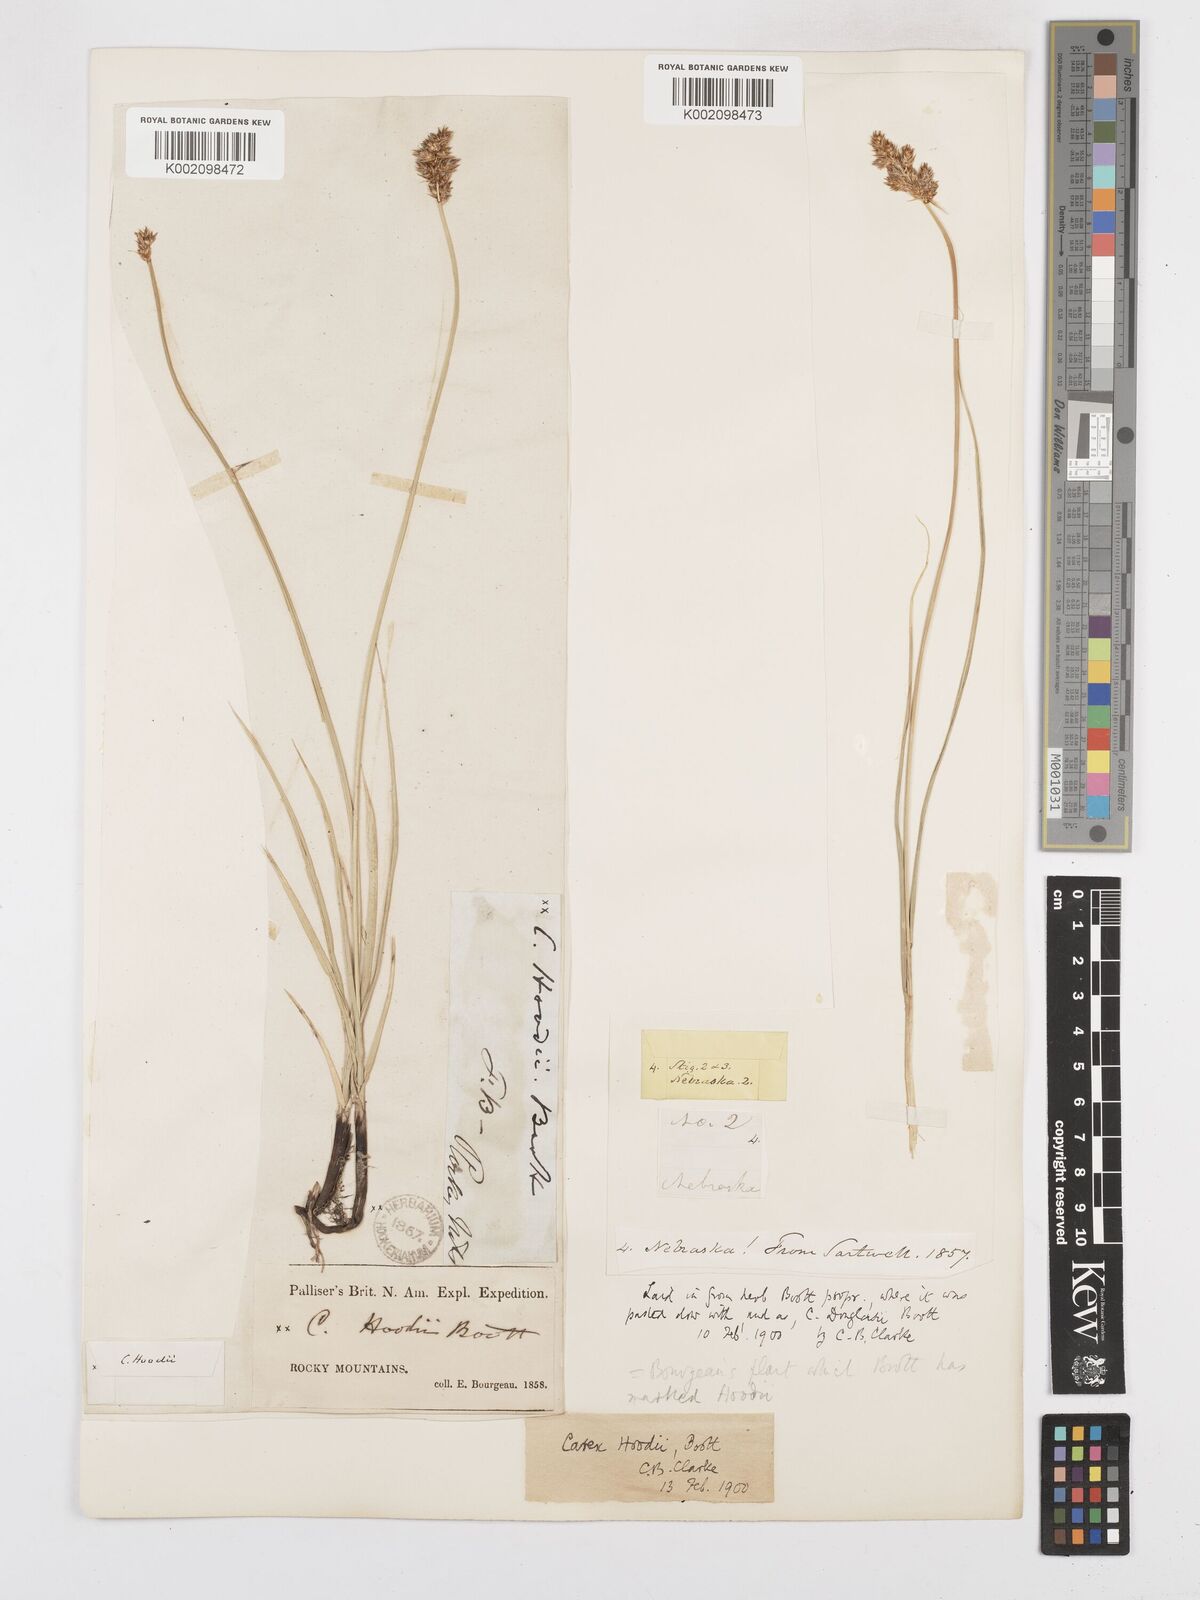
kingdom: Plantae
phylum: Tracheophyta
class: Liliopsida
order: Poales
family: Cyperaceae
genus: Carex
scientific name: Carex hoodii
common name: Hood's sedge
